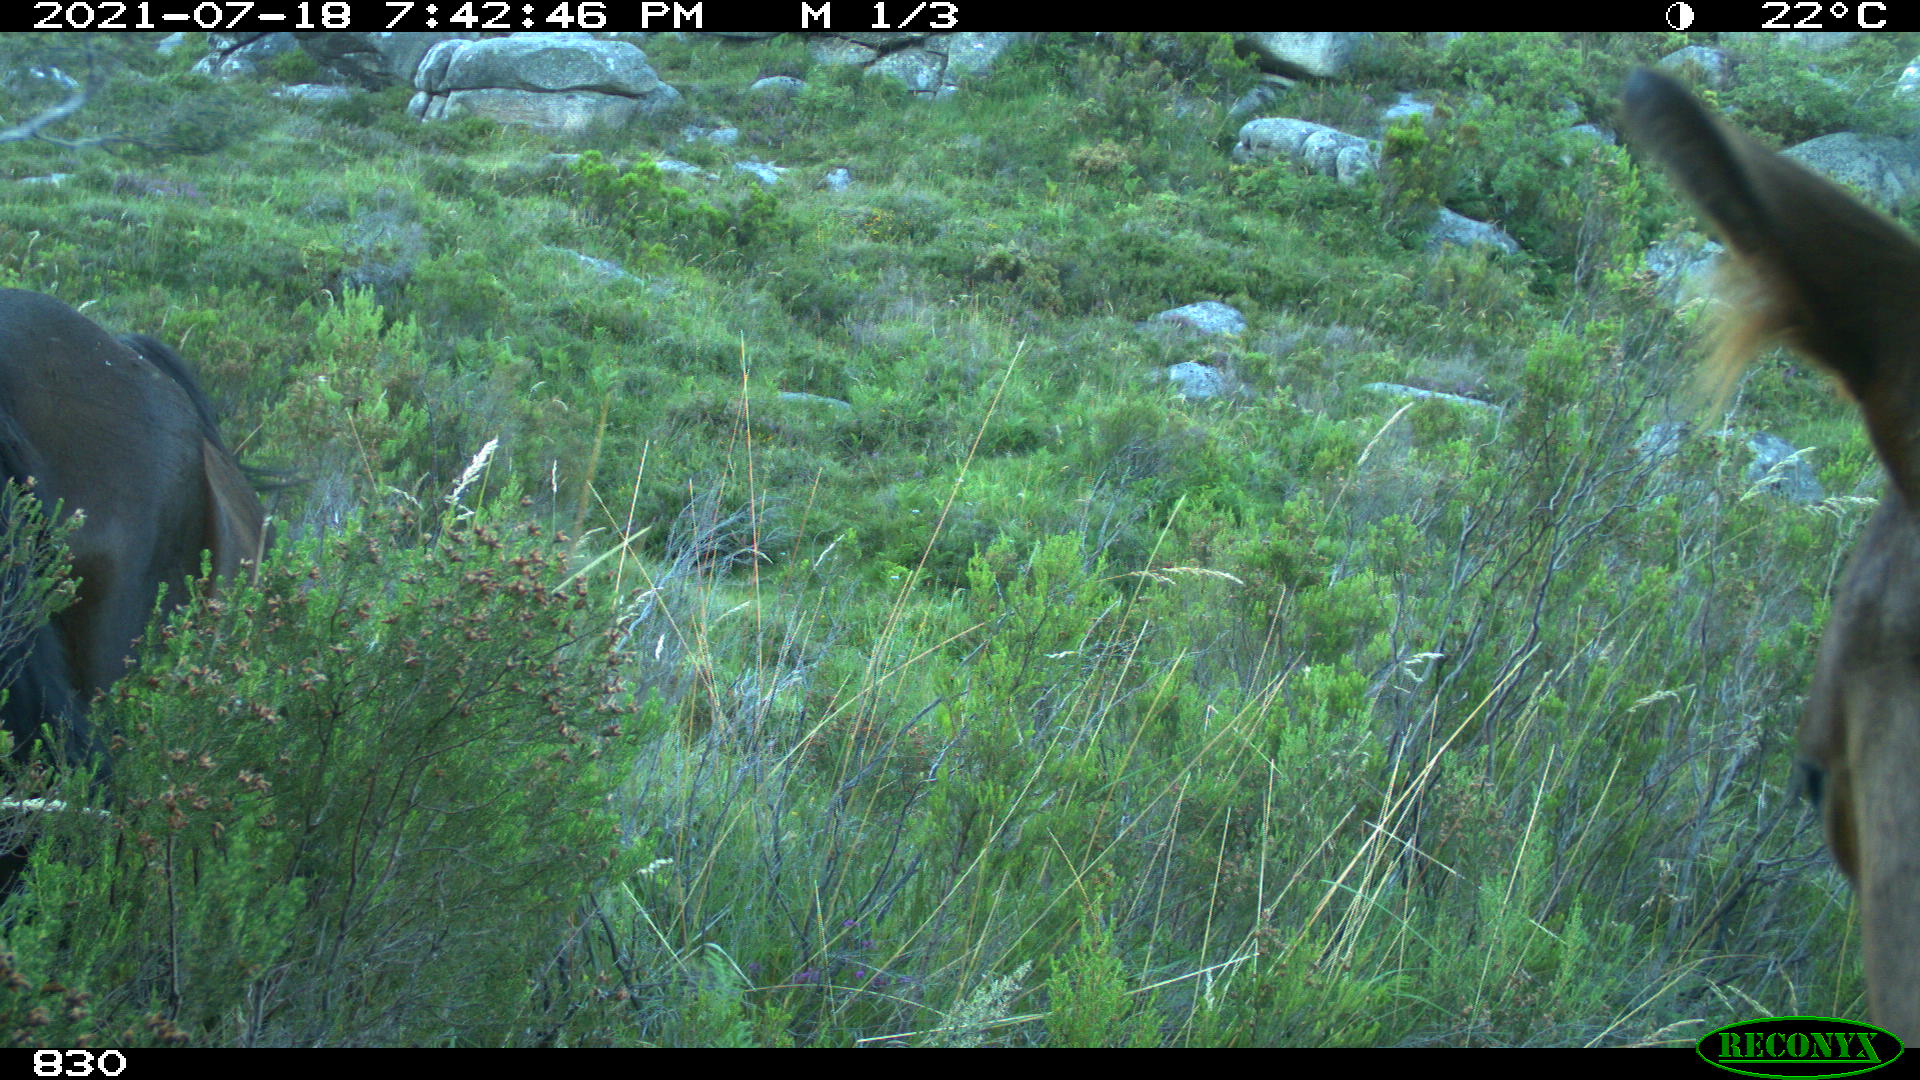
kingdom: Animalia
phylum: Chordata
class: Mammalia
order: Perissodactyla
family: Equidae
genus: Equus
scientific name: Equus caballus
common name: Horse
